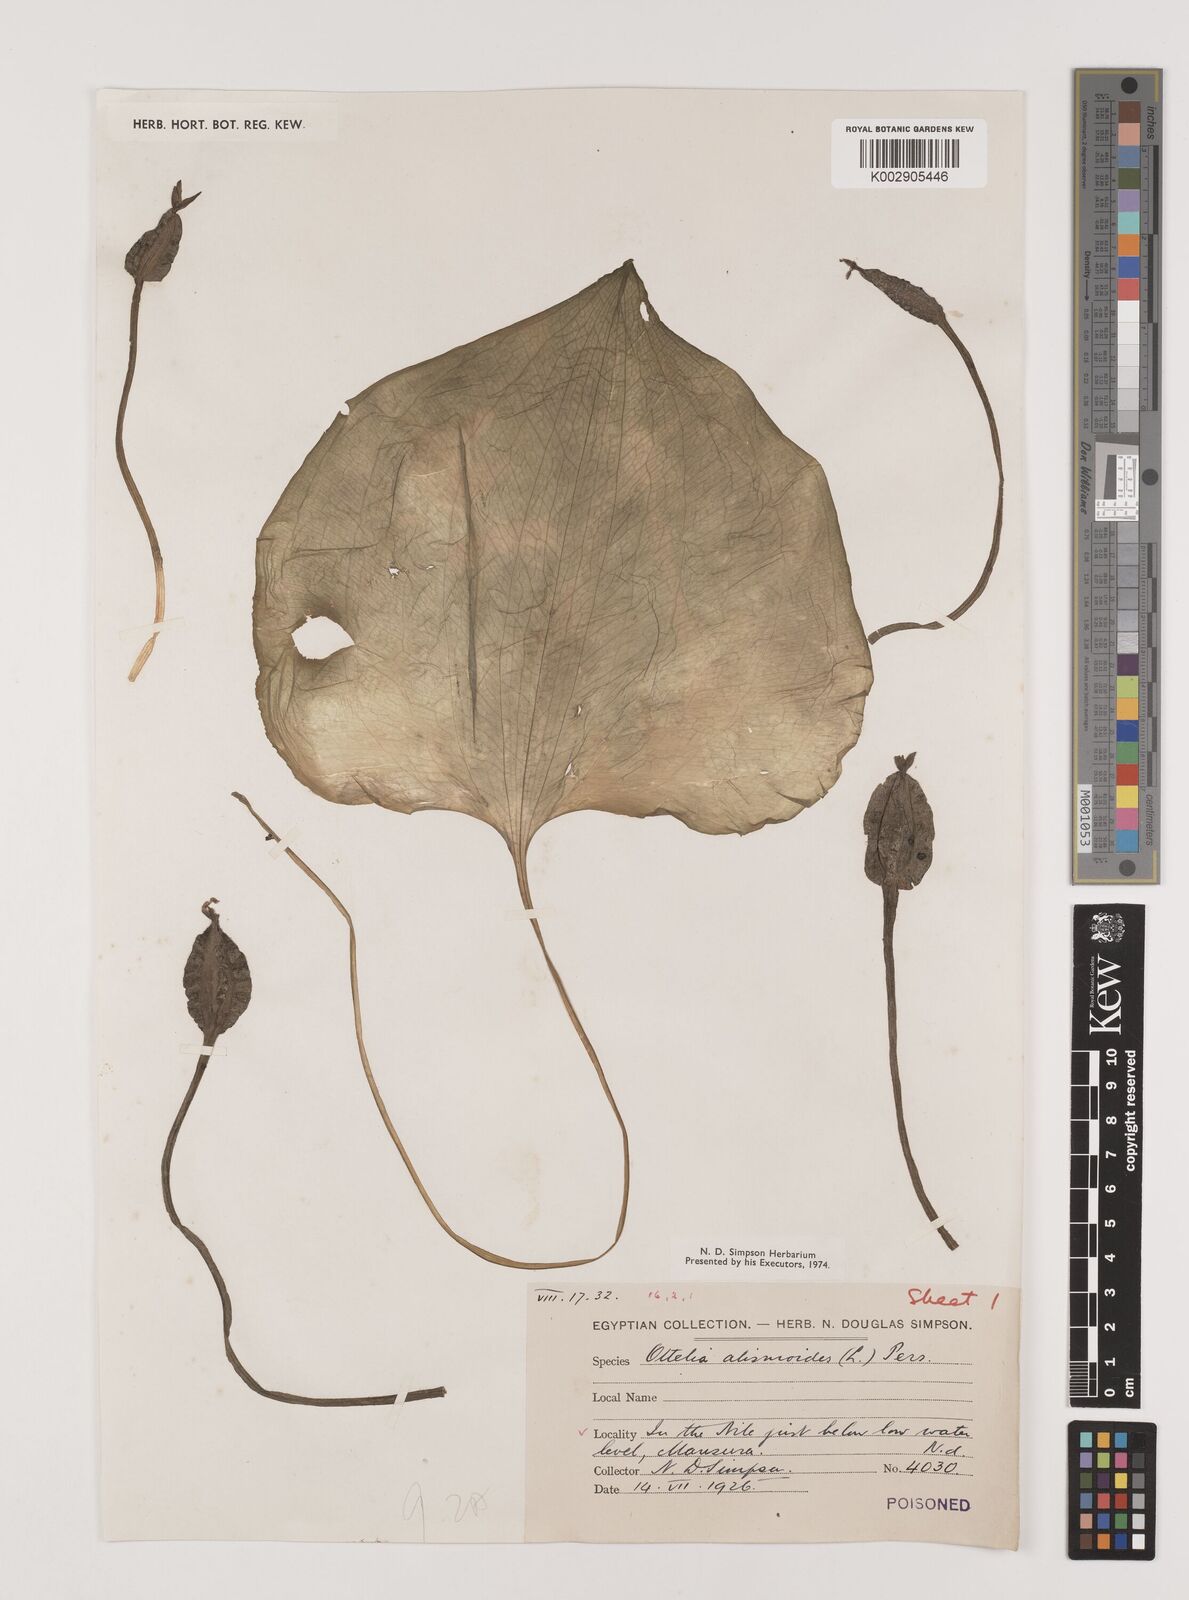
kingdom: Plantae
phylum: Tracheophyta
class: Liliopsida
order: Alismatales
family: Hydrocharitaceae
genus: Ottelia
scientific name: Ottelia alismoides
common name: Duck-lettuce
